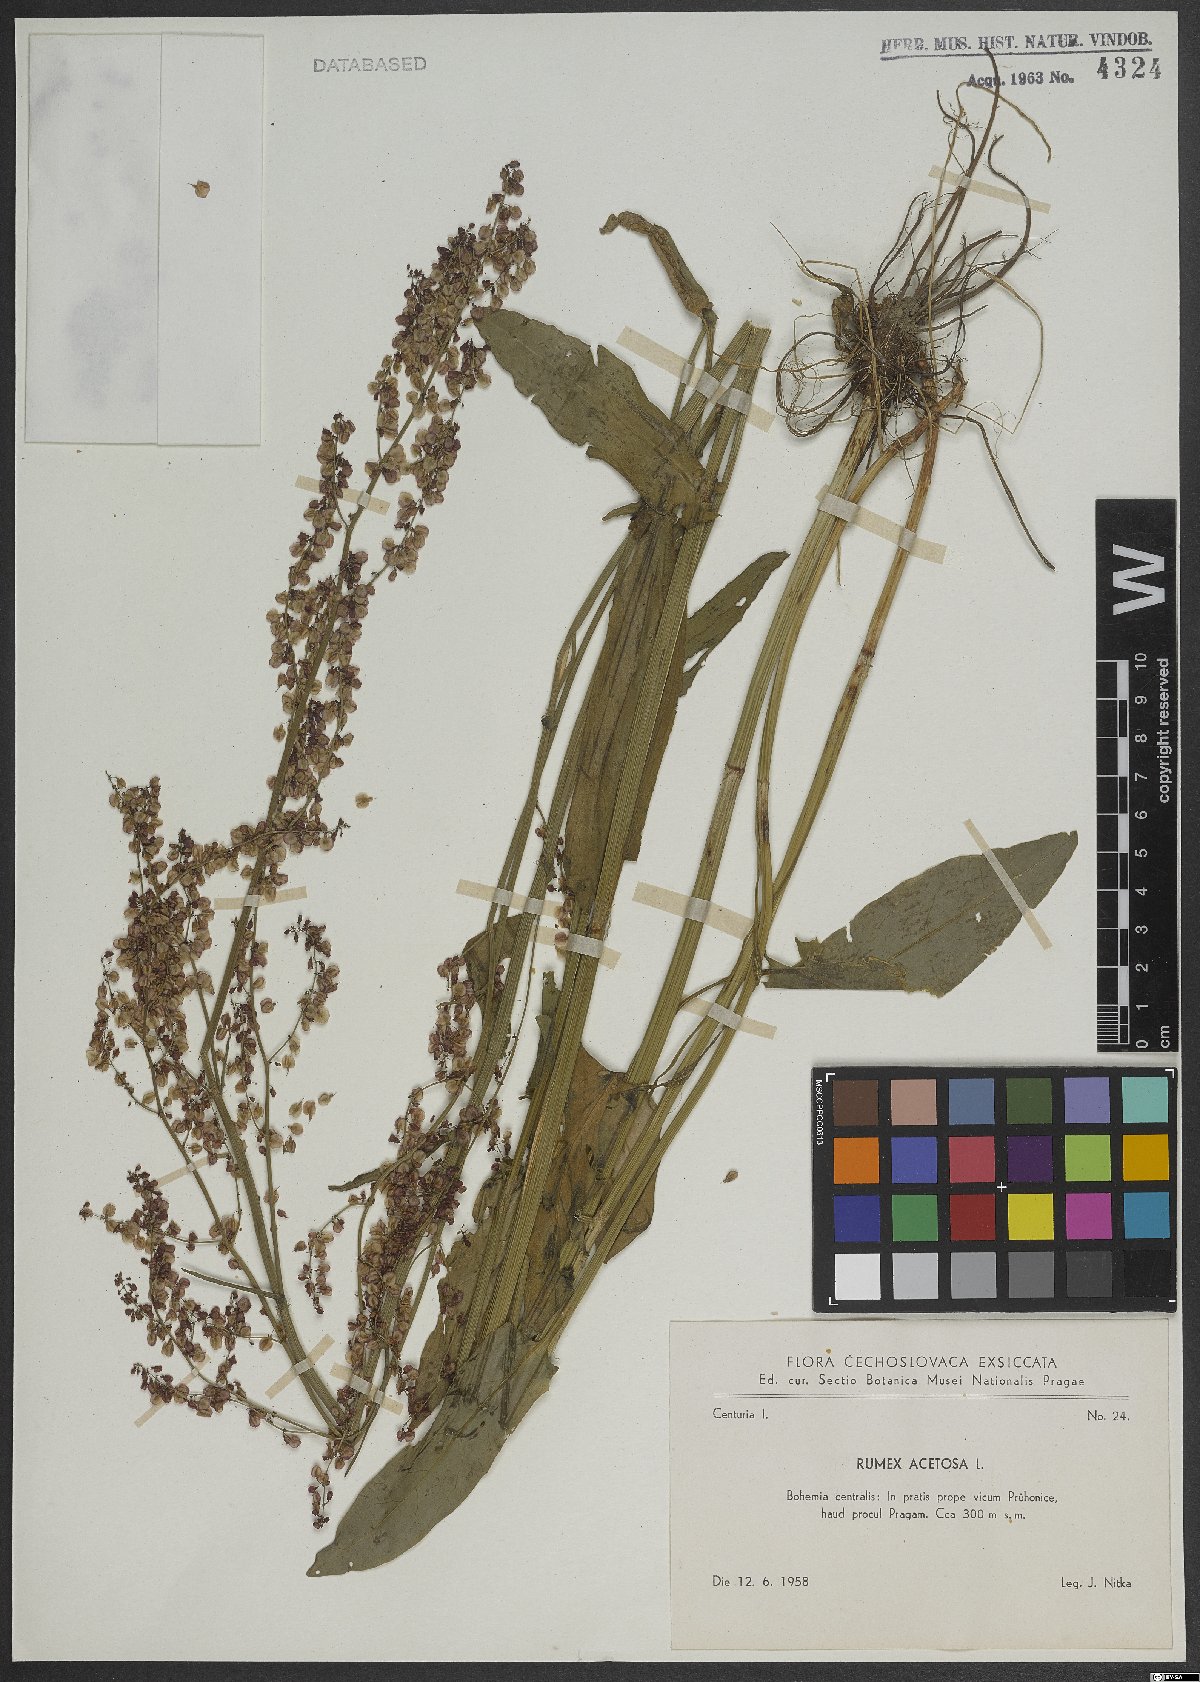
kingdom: Plantae
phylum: Tracheophyta
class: Magnoliopsida
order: Caryophyllales
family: Polygonaceae
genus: Rumex
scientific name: Rumex acetosa
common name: Garden sorrel
